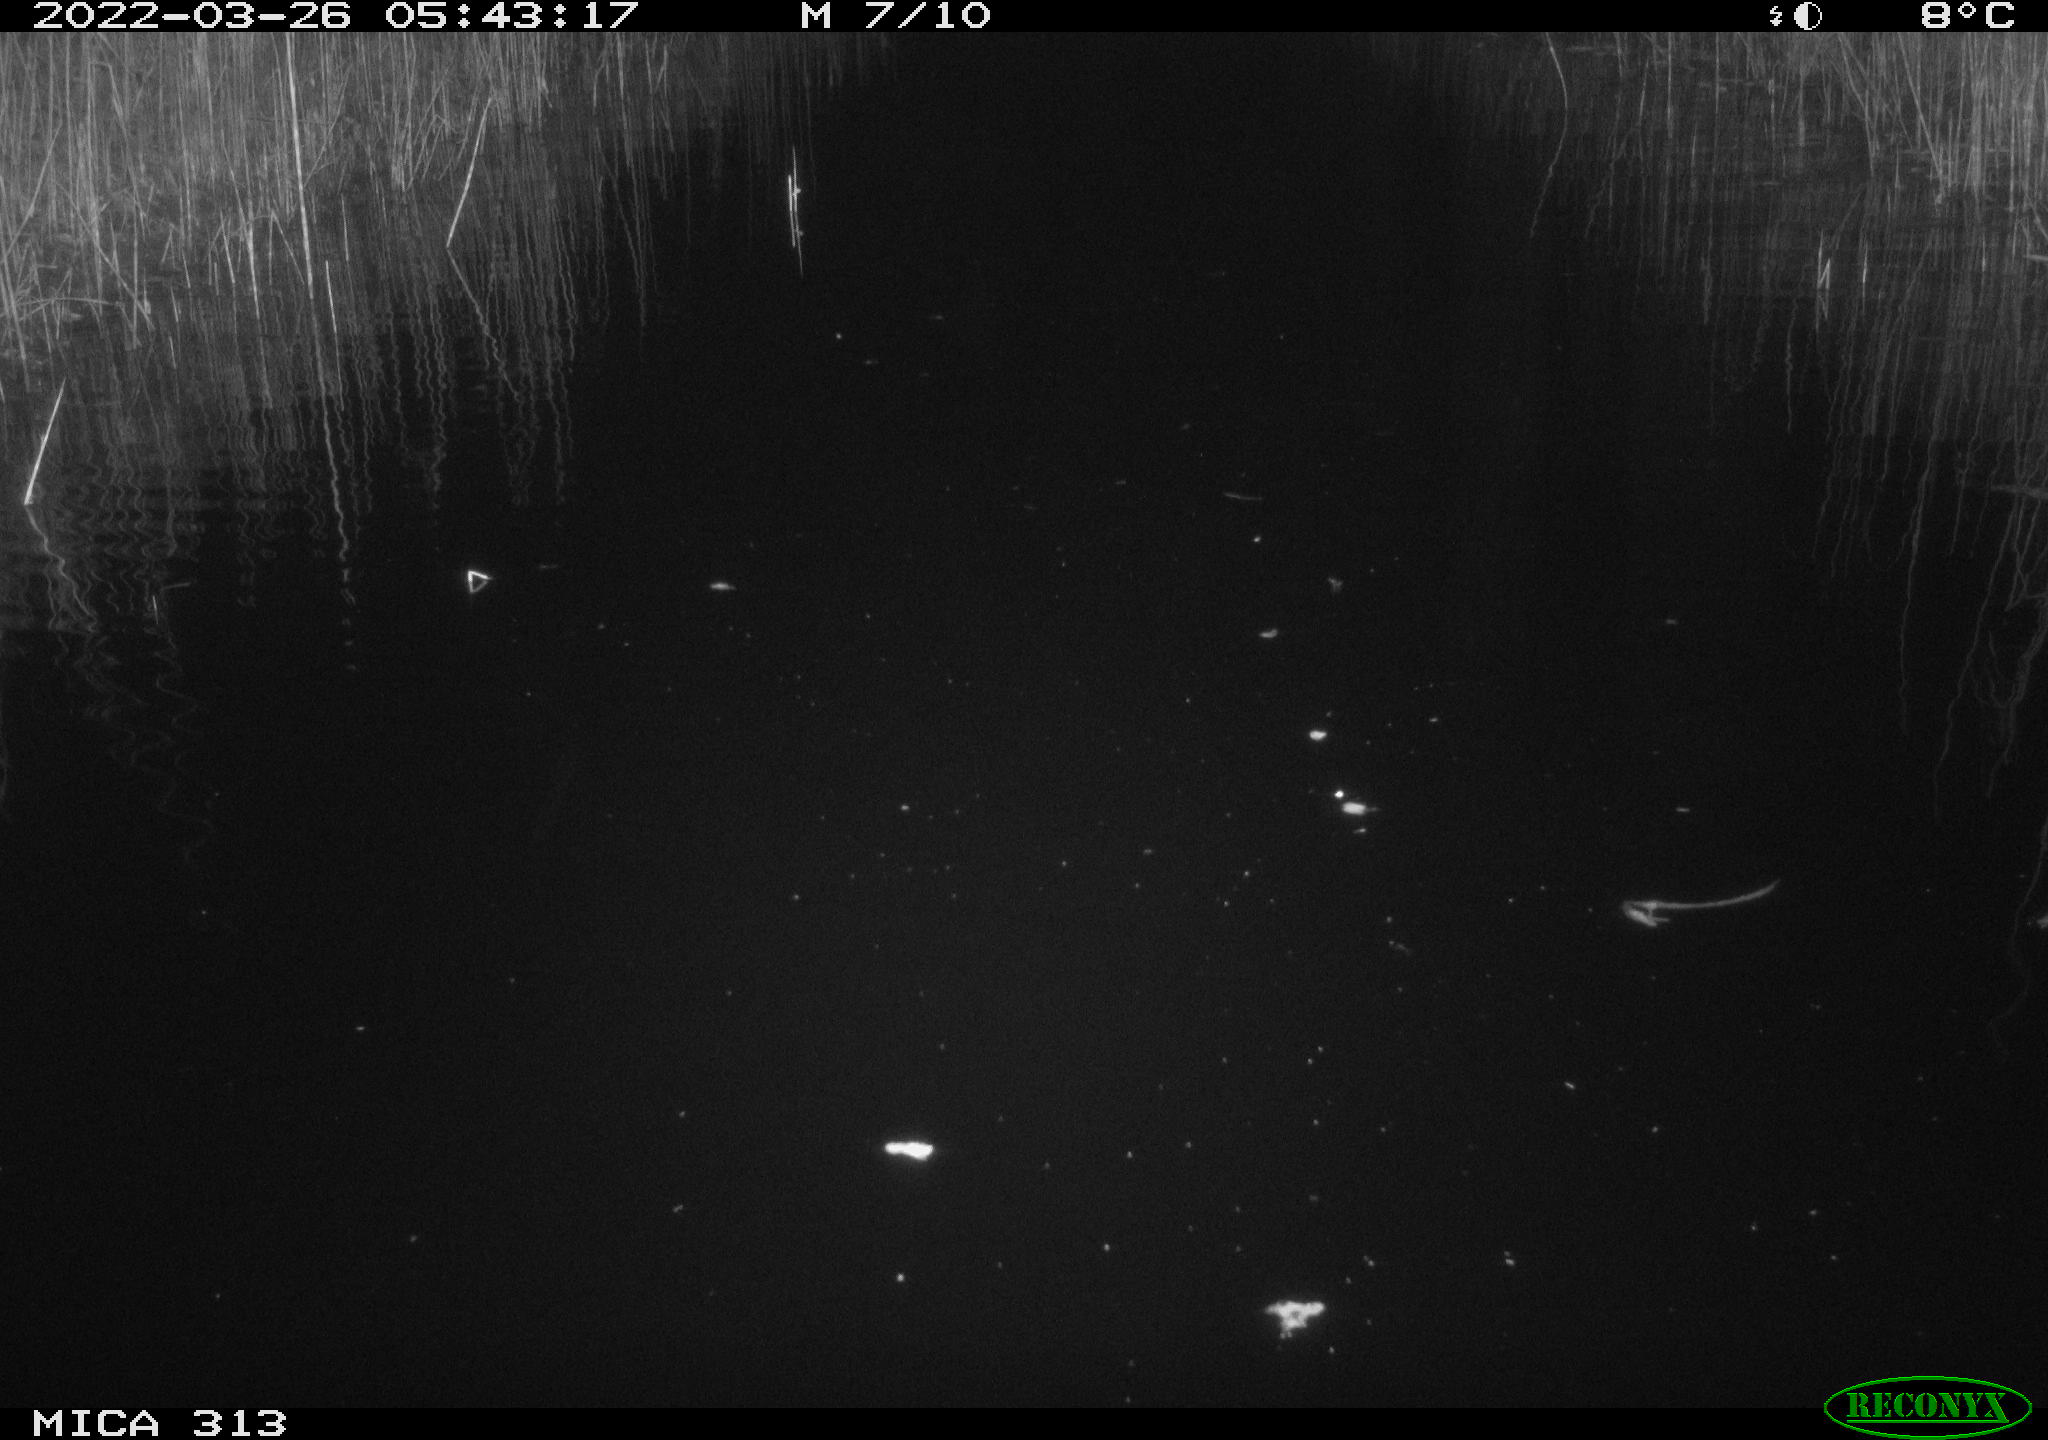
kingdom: Animalia
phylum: Chordata
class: Aves
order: Gruiformes
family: Rallidae
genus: Gallinula
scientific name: Gallinula chloropus
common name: Common moorhen
